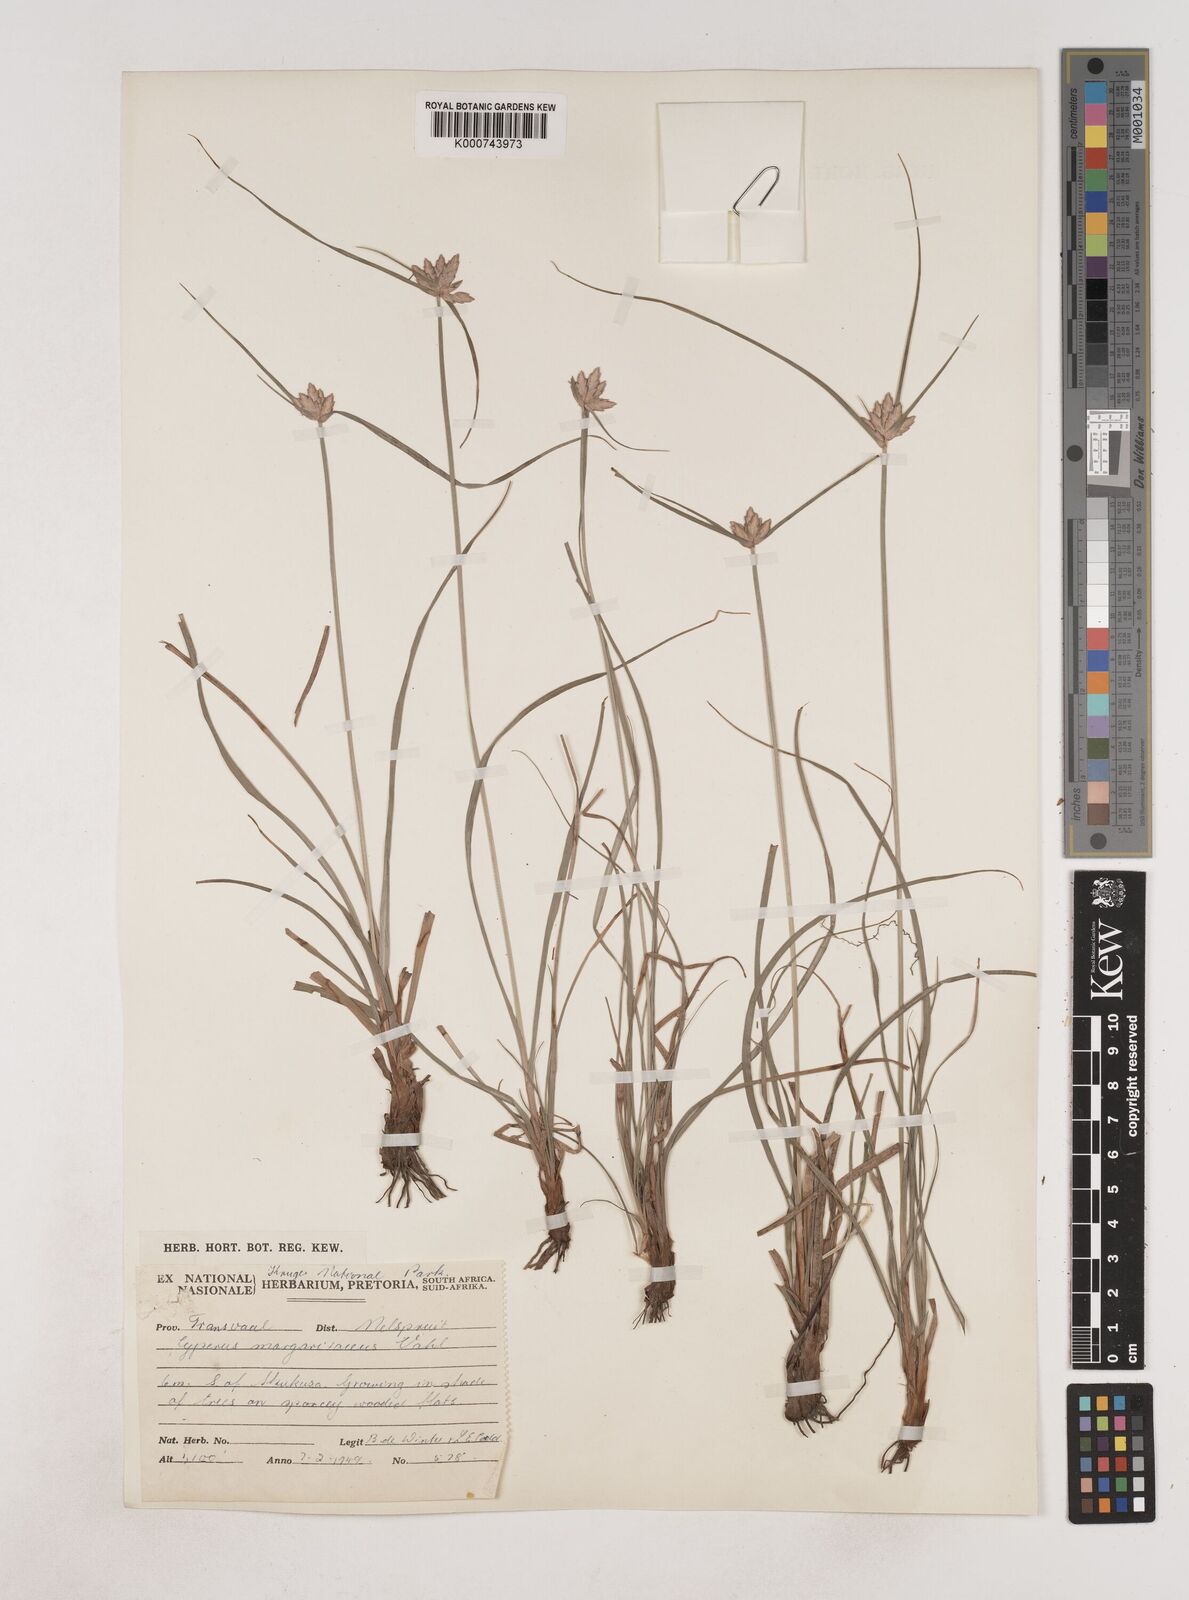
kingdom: Plantae
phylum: Tracheophyta
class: Liliopsida
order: Poales
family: Cyperaceae
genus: Cyperus
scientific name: Cyperus margaritaceus
